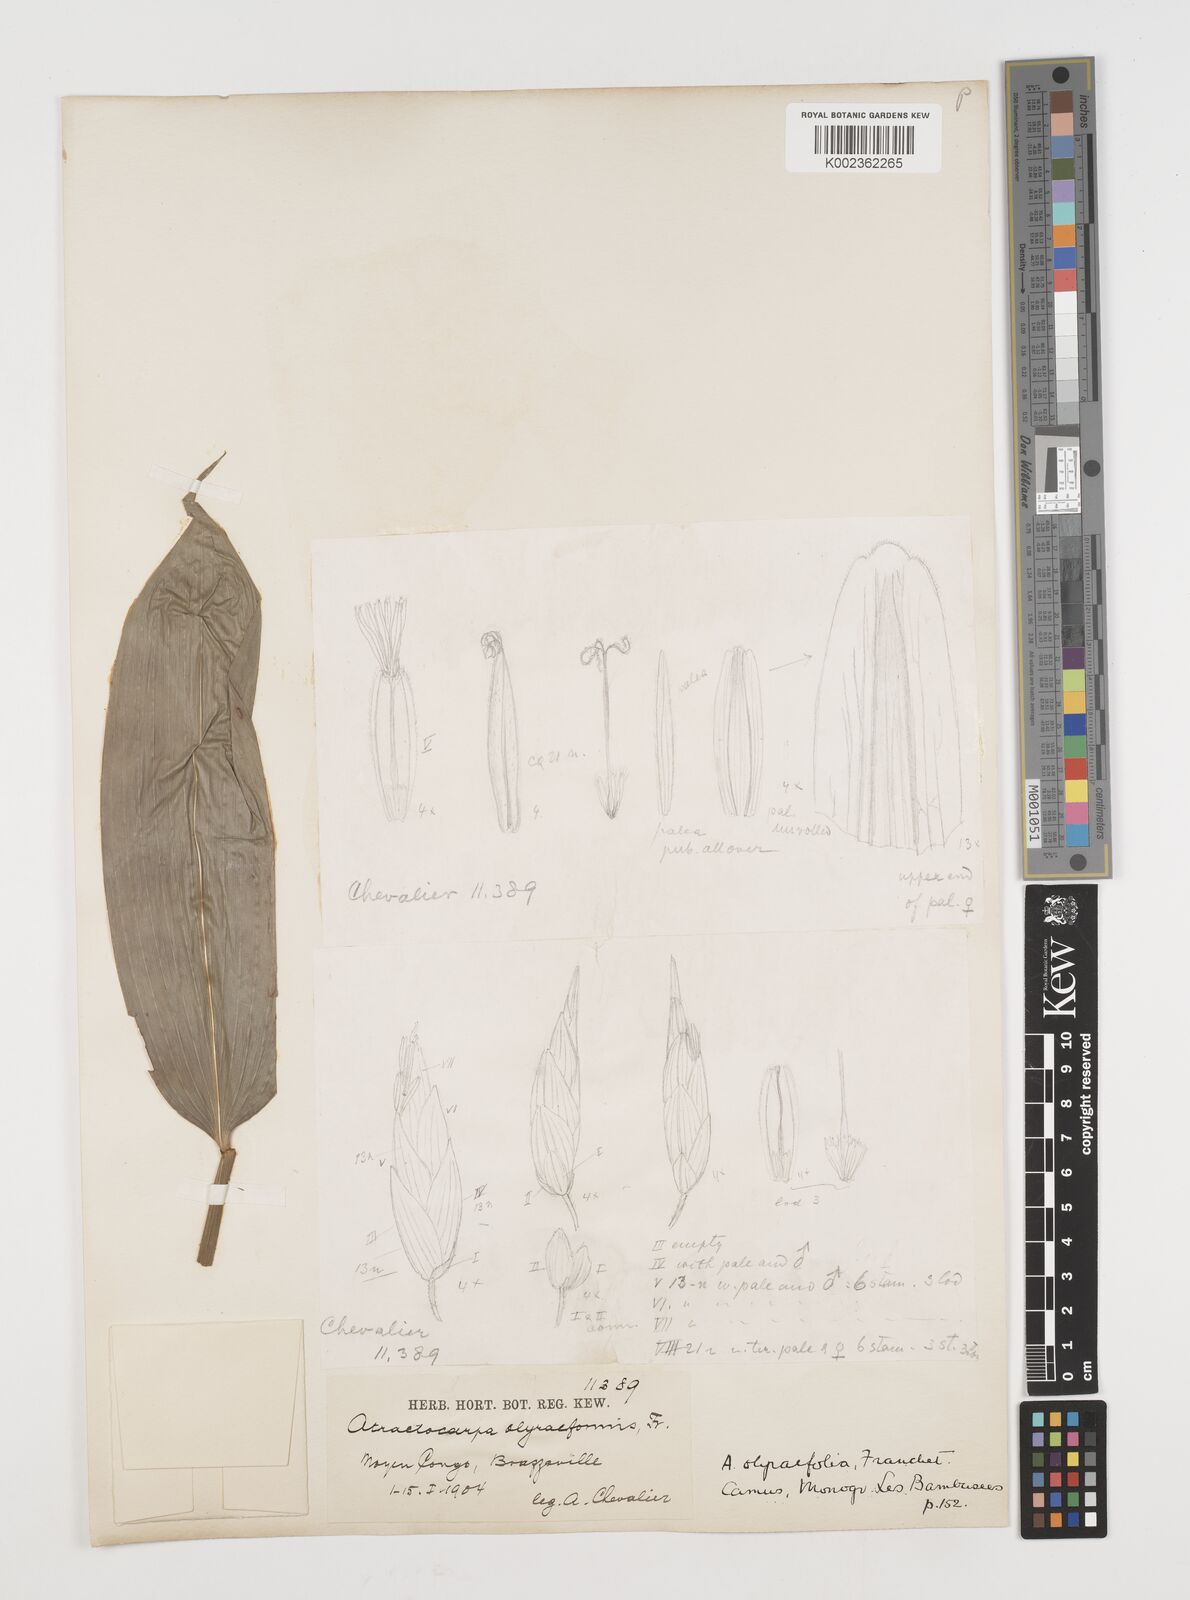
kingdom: Plantae
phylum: Tracheophyta
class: Liliopsida
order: Poales
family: Poaceae
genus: Puelia
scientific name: Puelia olyriformis
